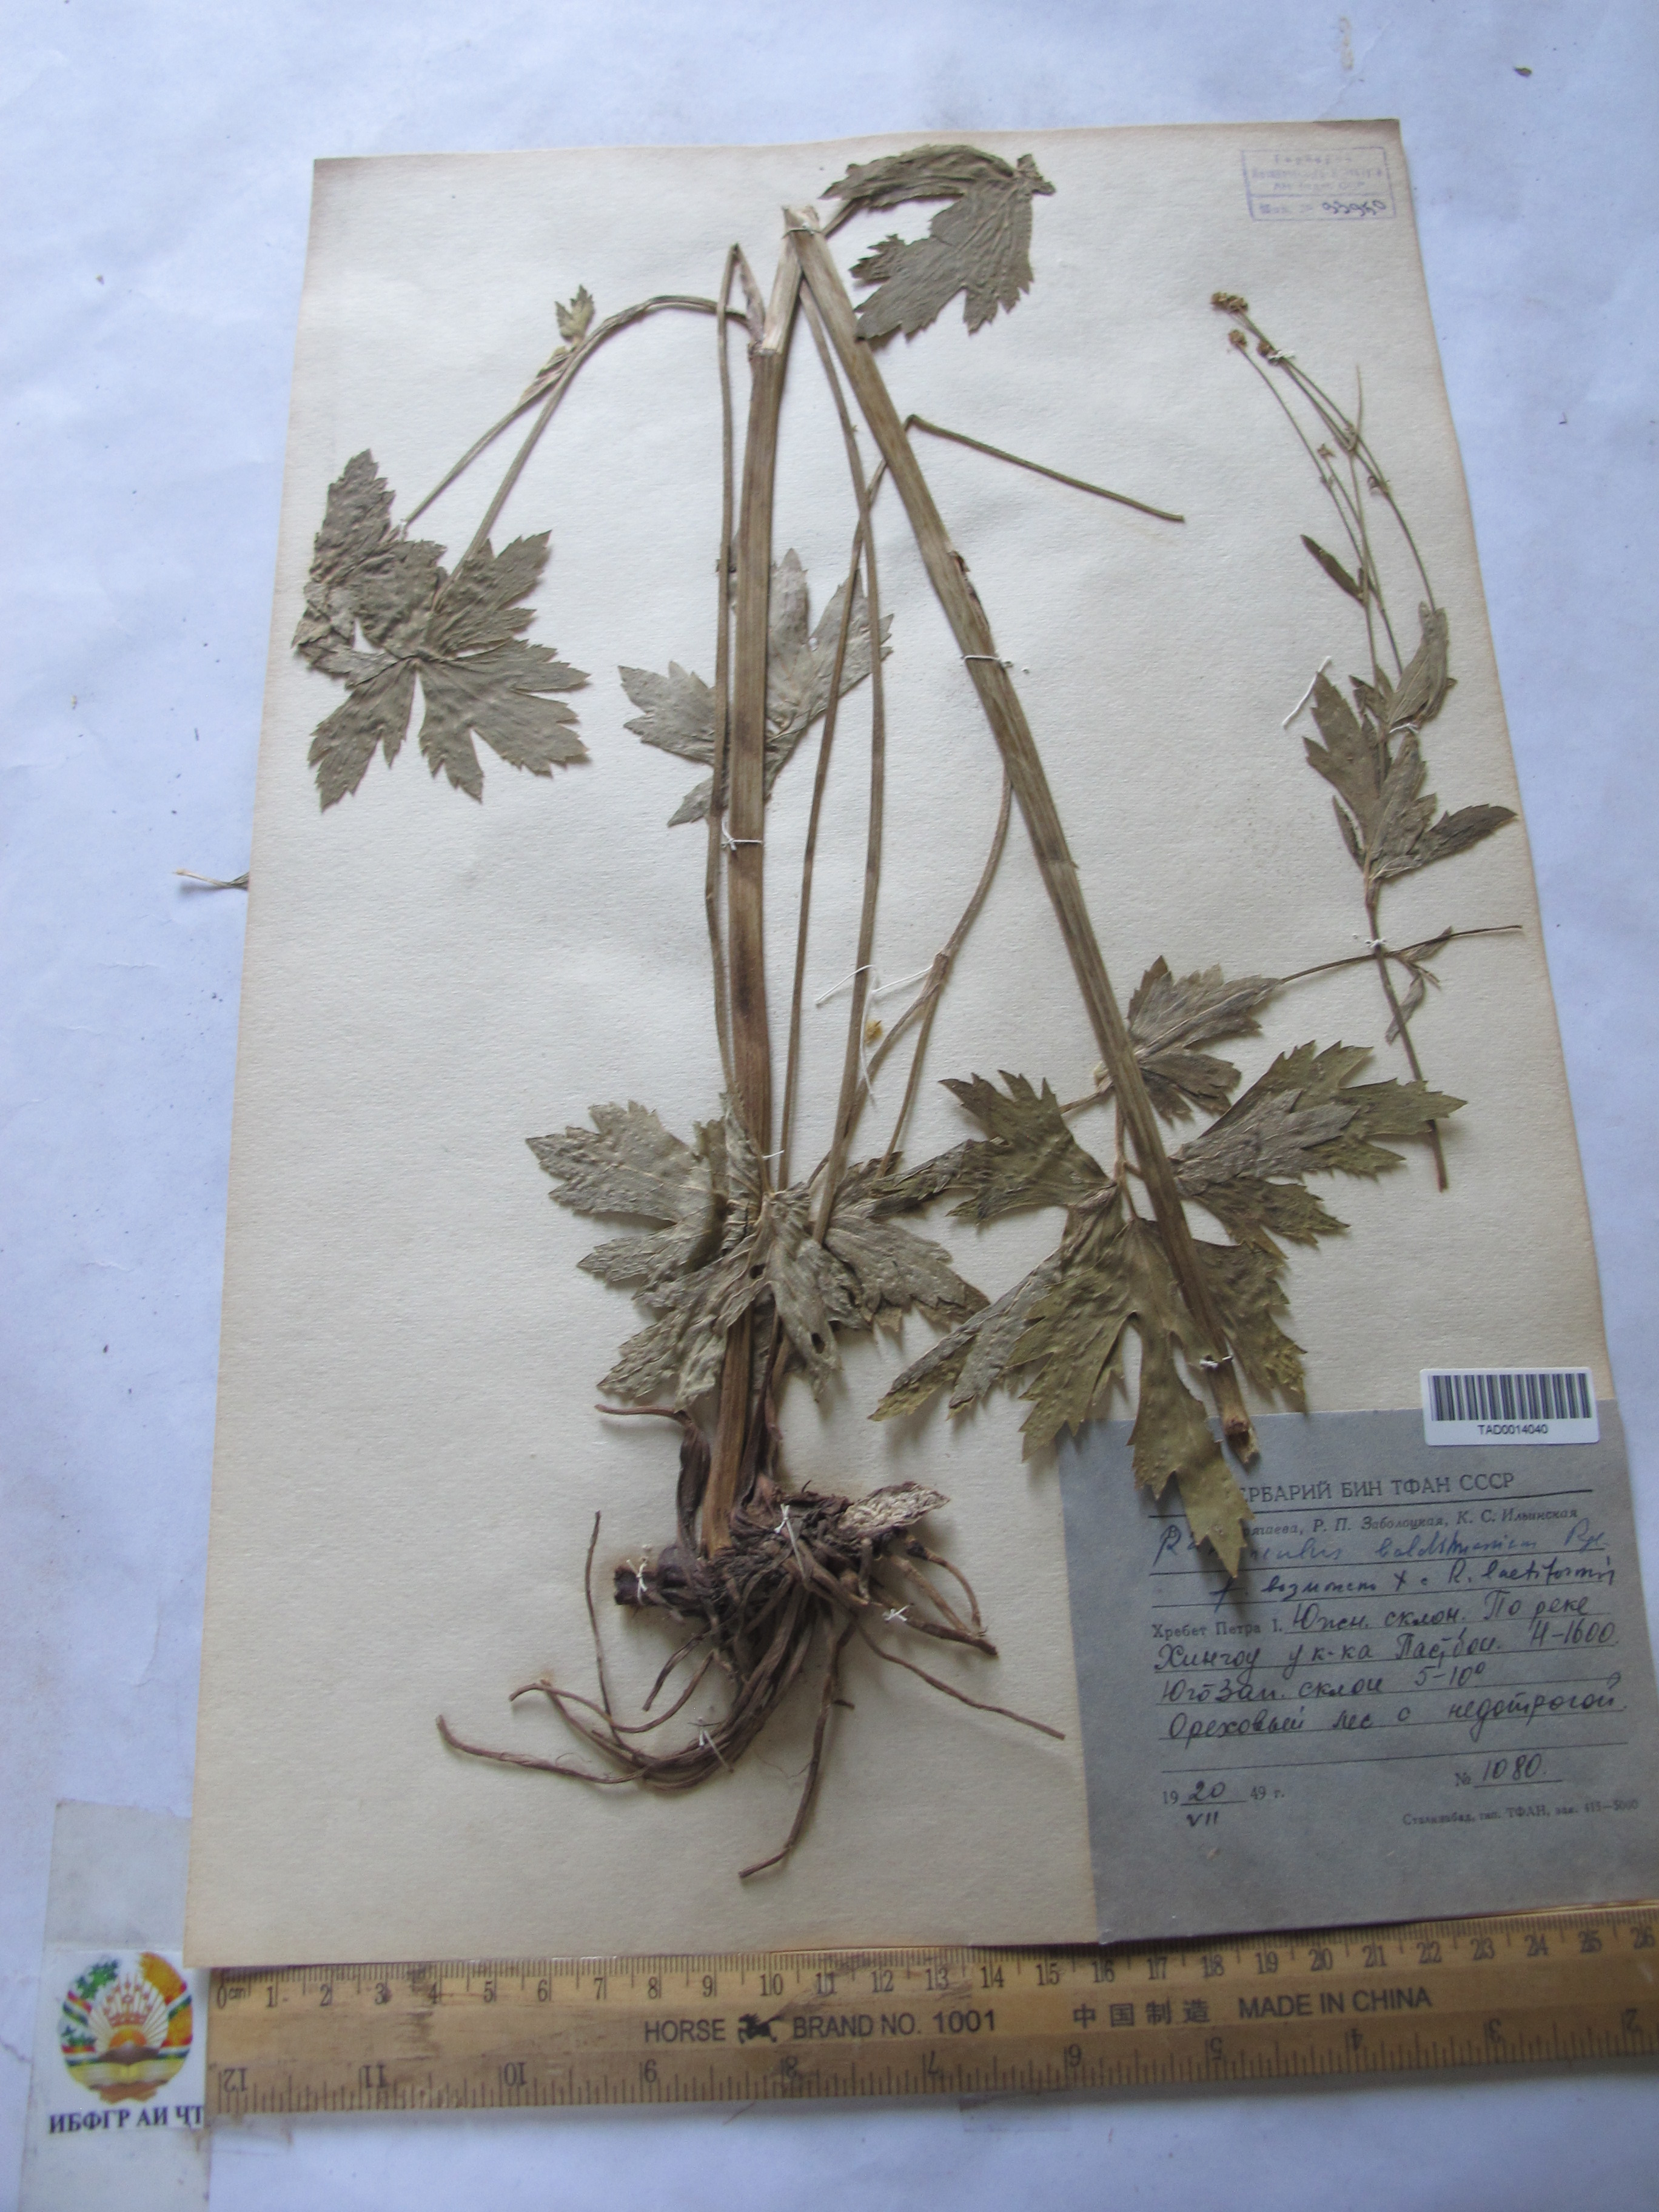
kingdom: Plantae
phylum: Tracheophyta
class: Magnoliopsida
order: Ranunculales
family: Ranunculaceae
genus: Ranunculus
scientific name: Ranunculus baldshuanicus
